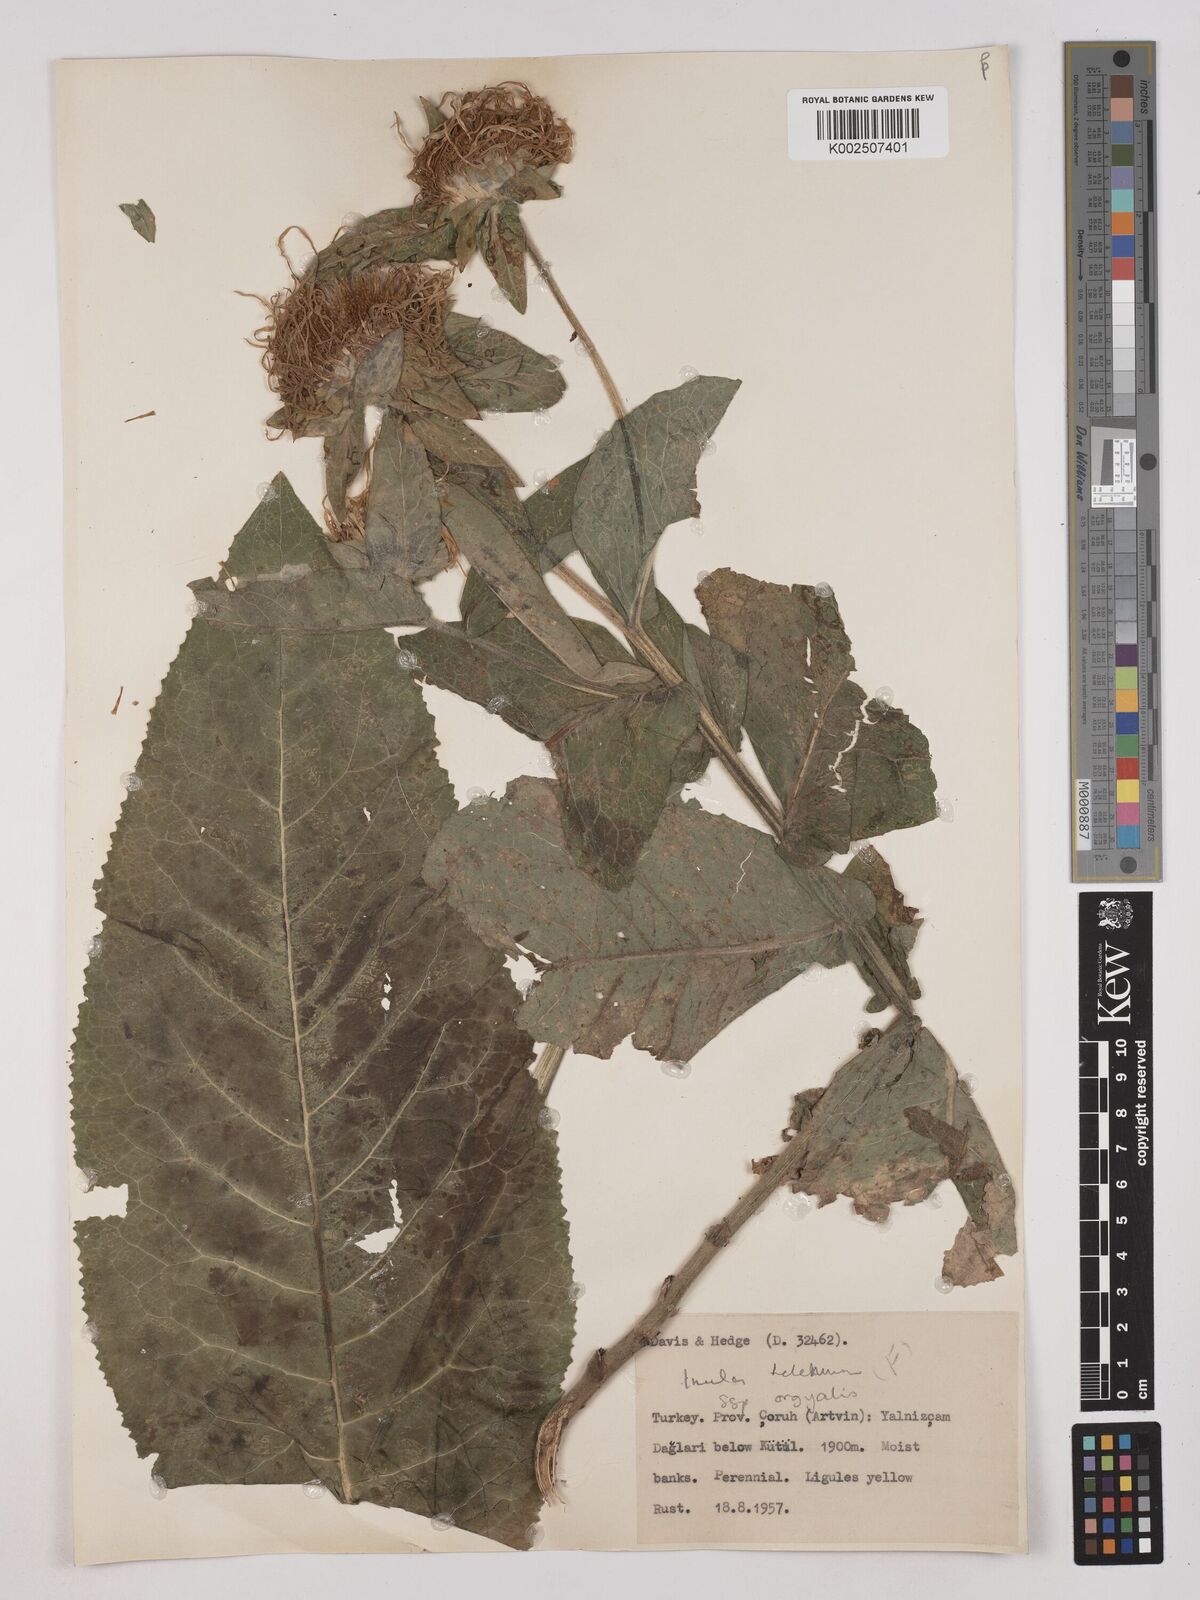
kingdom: Plantae
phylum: Tracheophyta
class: Magnoliopsida
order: Asterales
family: Asteraceae
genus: Inula
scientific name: Inula
